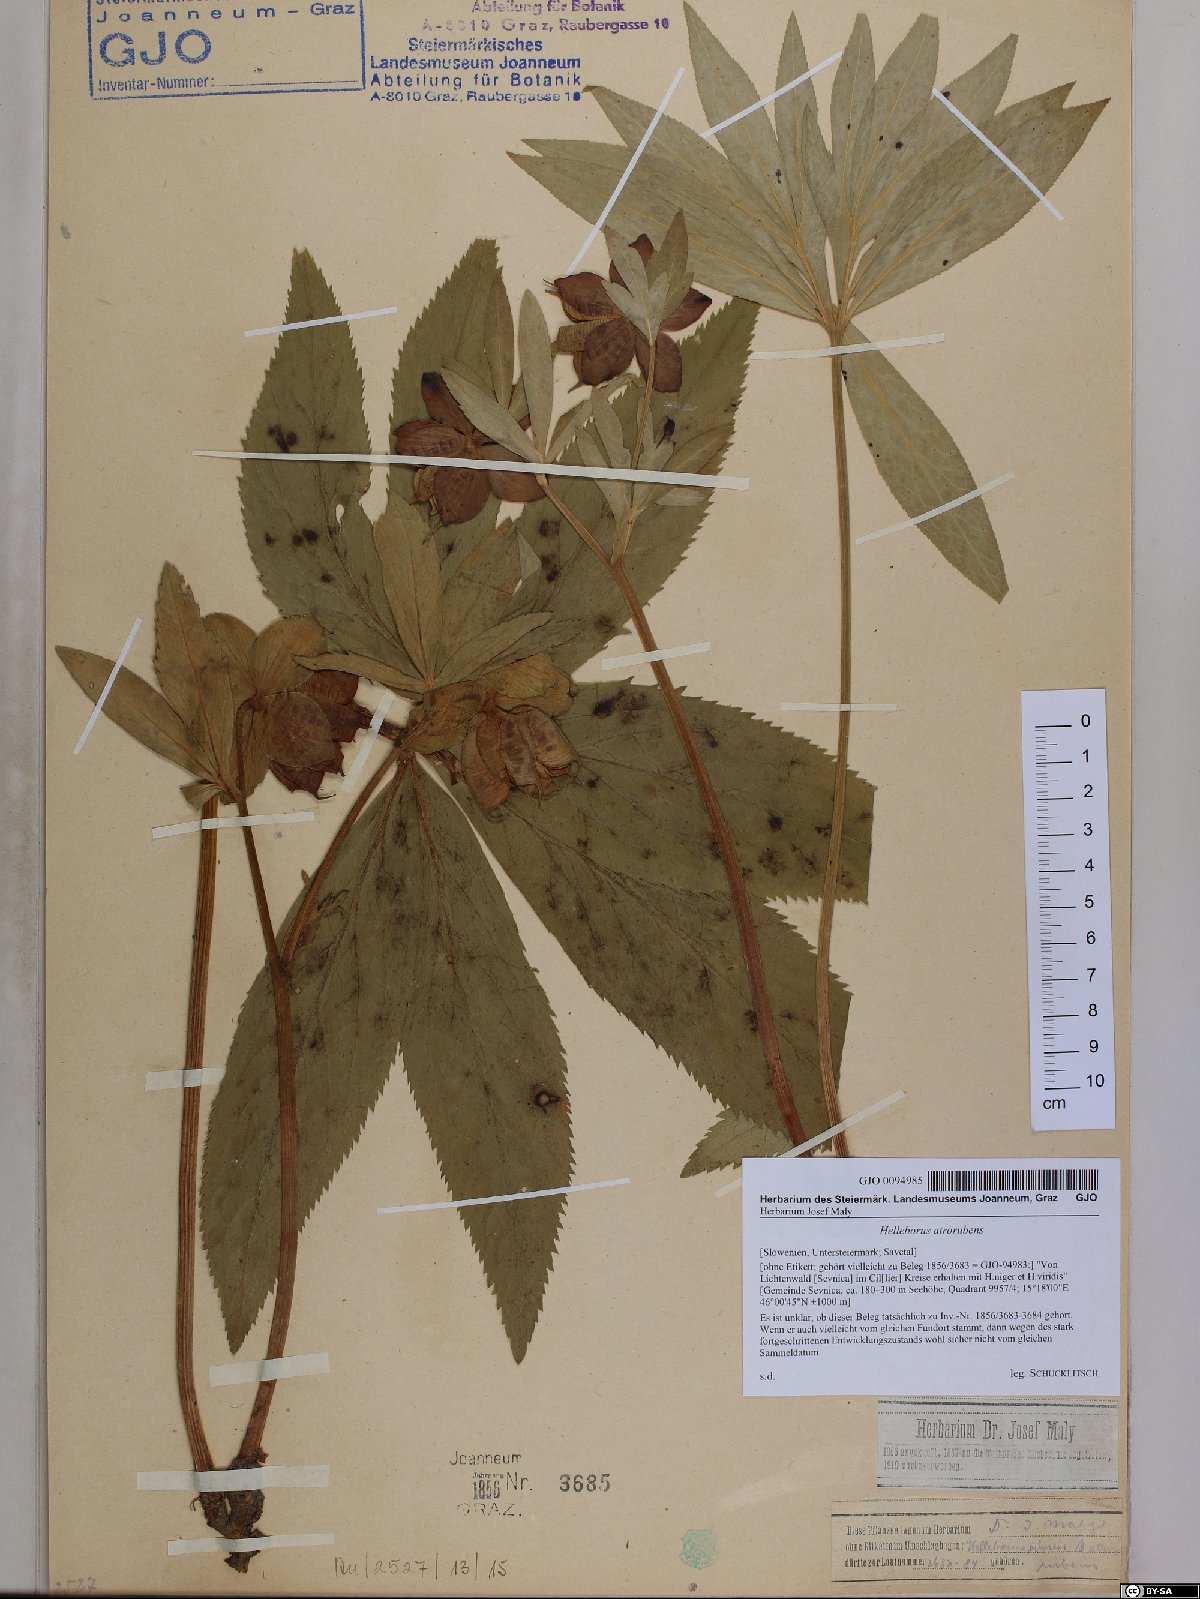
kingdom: Plantae
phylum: Tracheophyta
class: Magnoliopsida
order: Ranunculales
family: Ranunculaceae
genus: Helleborus
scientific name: Helleborus dumetorum
